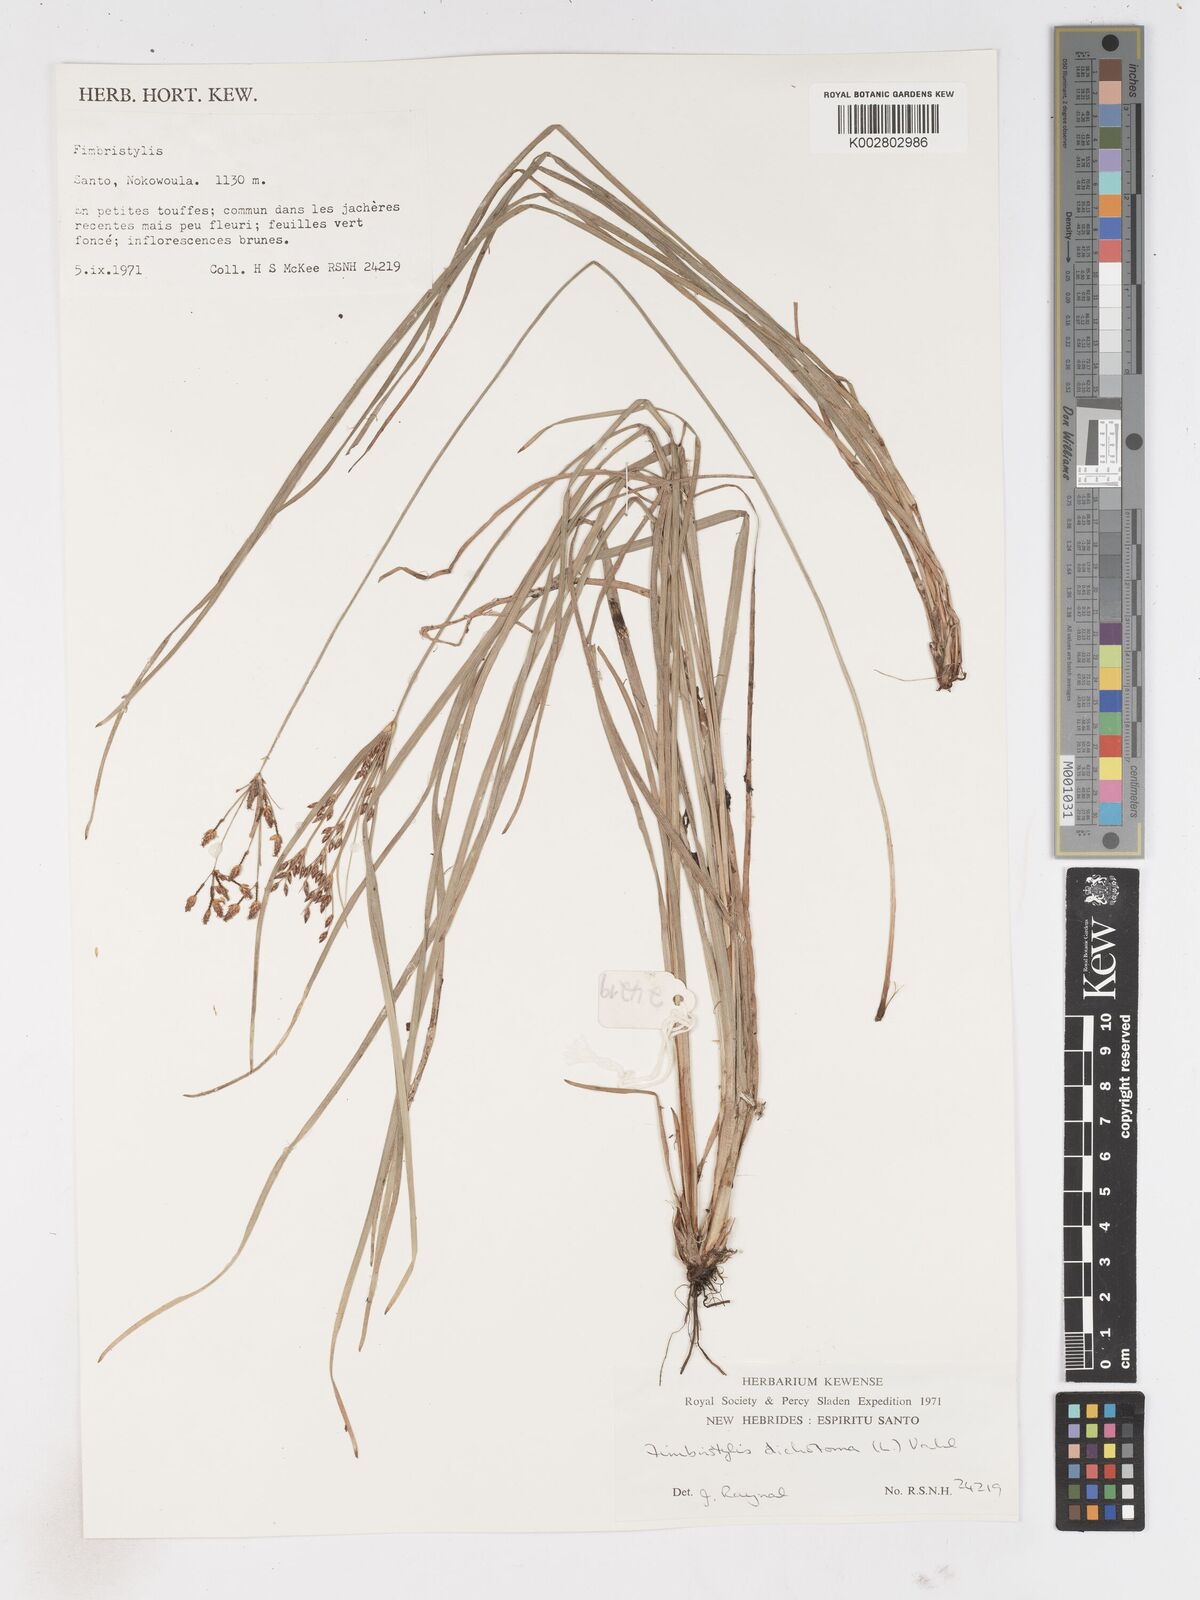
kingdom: Plantae
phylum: Tracheophyta
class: Liliopsida
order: Poales
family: Cyperaceae
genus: Fimbristylis
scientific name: Fimbristylis dichotoma
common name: Forked fimbry
